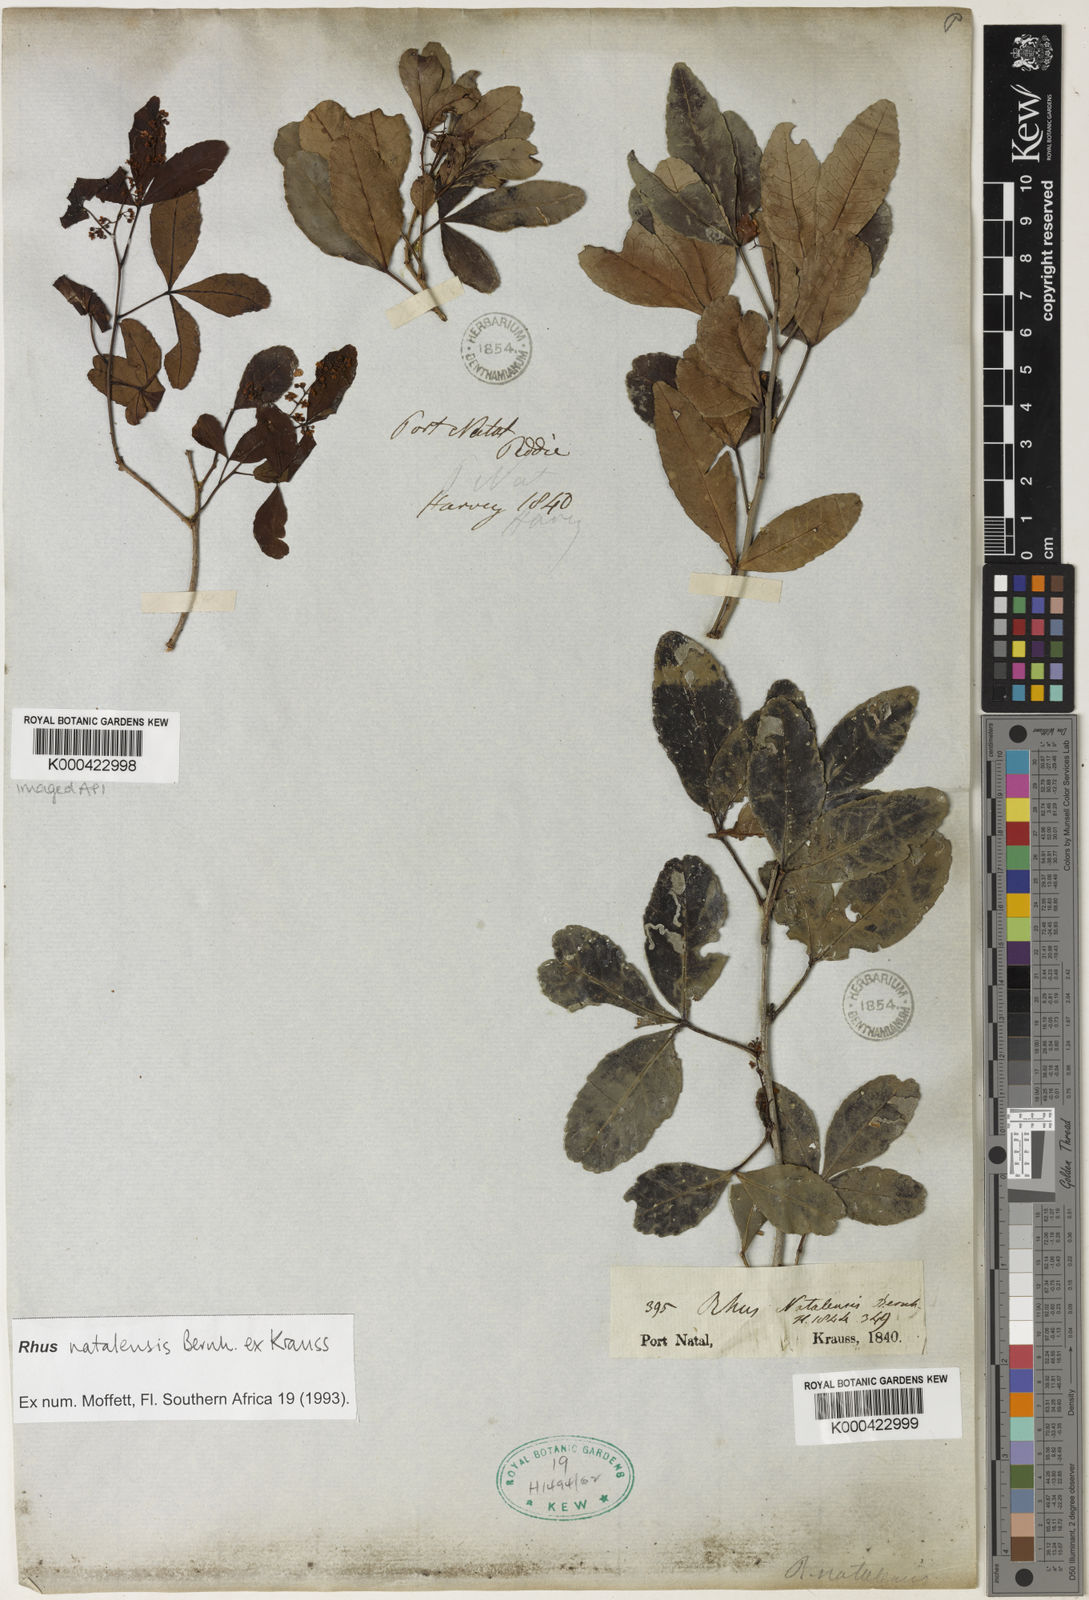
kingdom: Plantae
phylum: Tracheophyta
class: Magnoliopsida
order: Sapindales
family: Anacardiaceae
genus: Searsia
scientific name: Searsia natalensis
